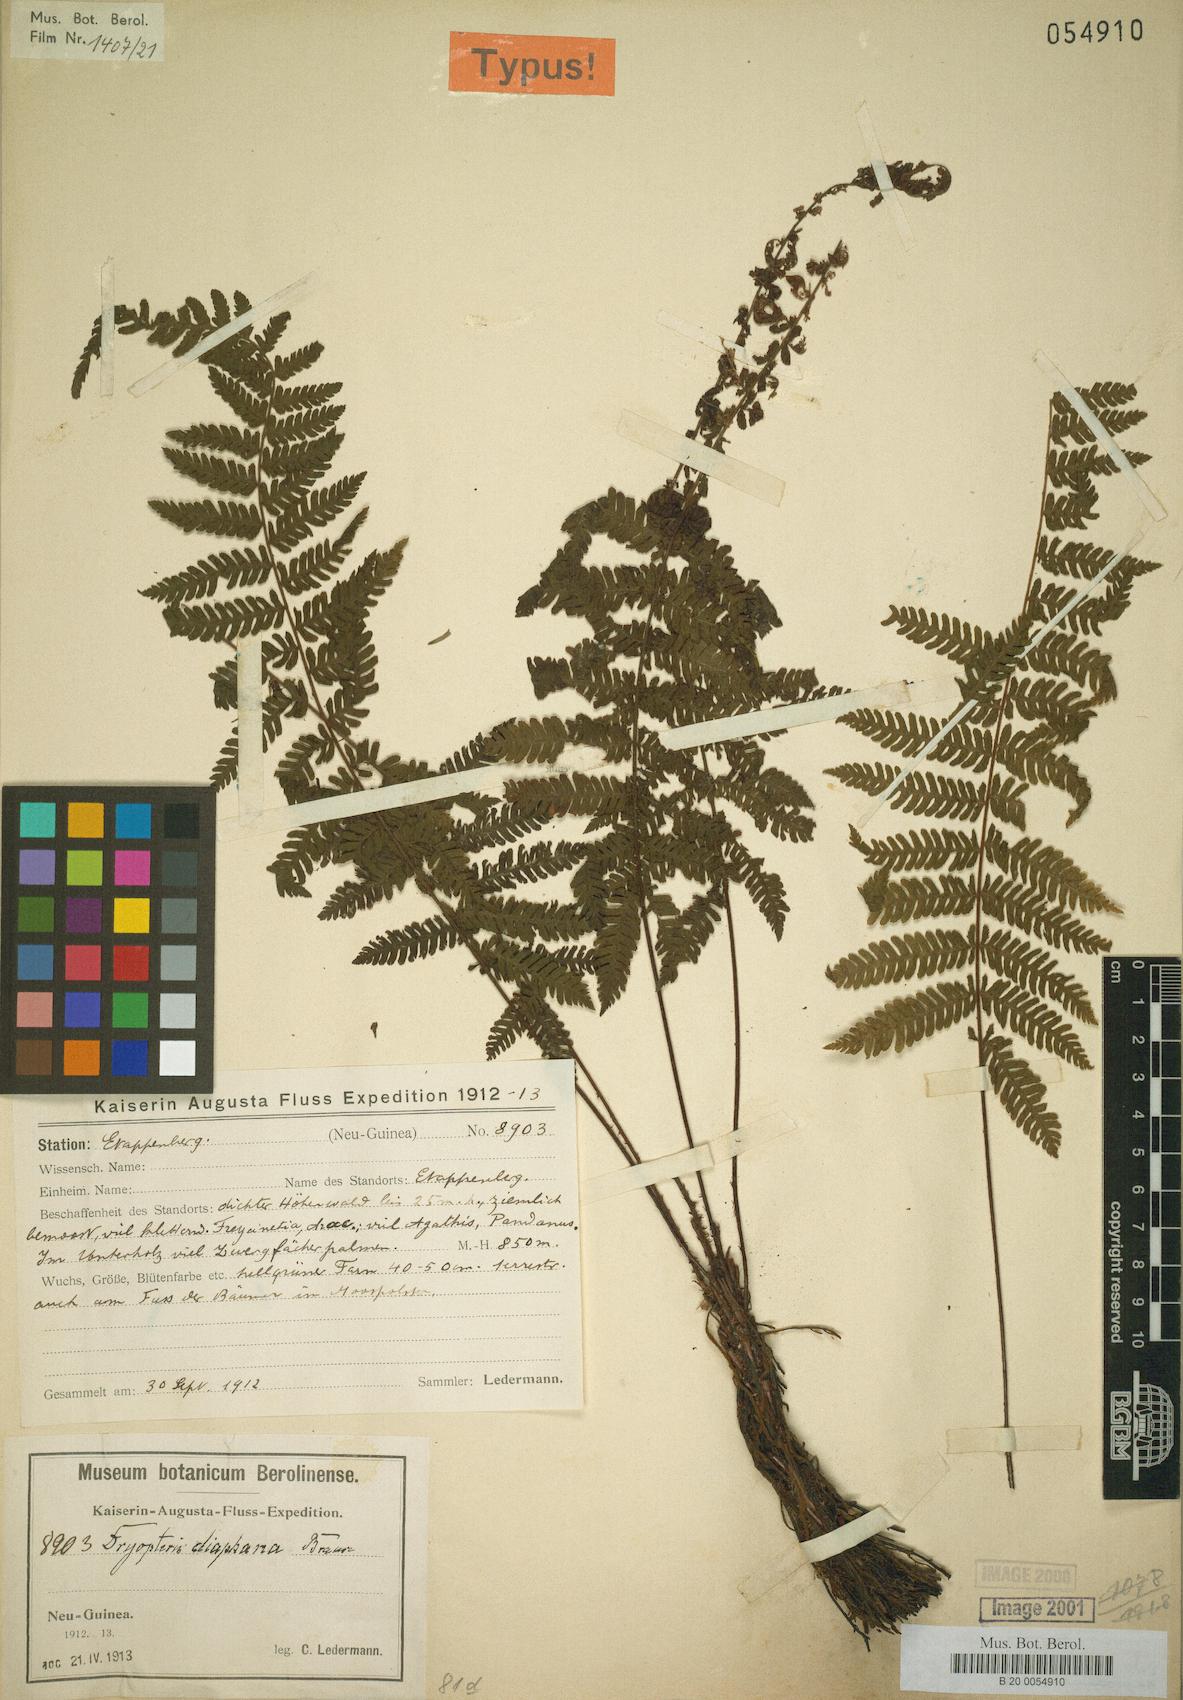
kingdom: Plantae
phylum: Tracheophyta
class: Polypodiopsida
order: Polypodiales
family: Thelypteridaceae
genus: Coryphopteris
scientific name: Coryphopteris diaphana
